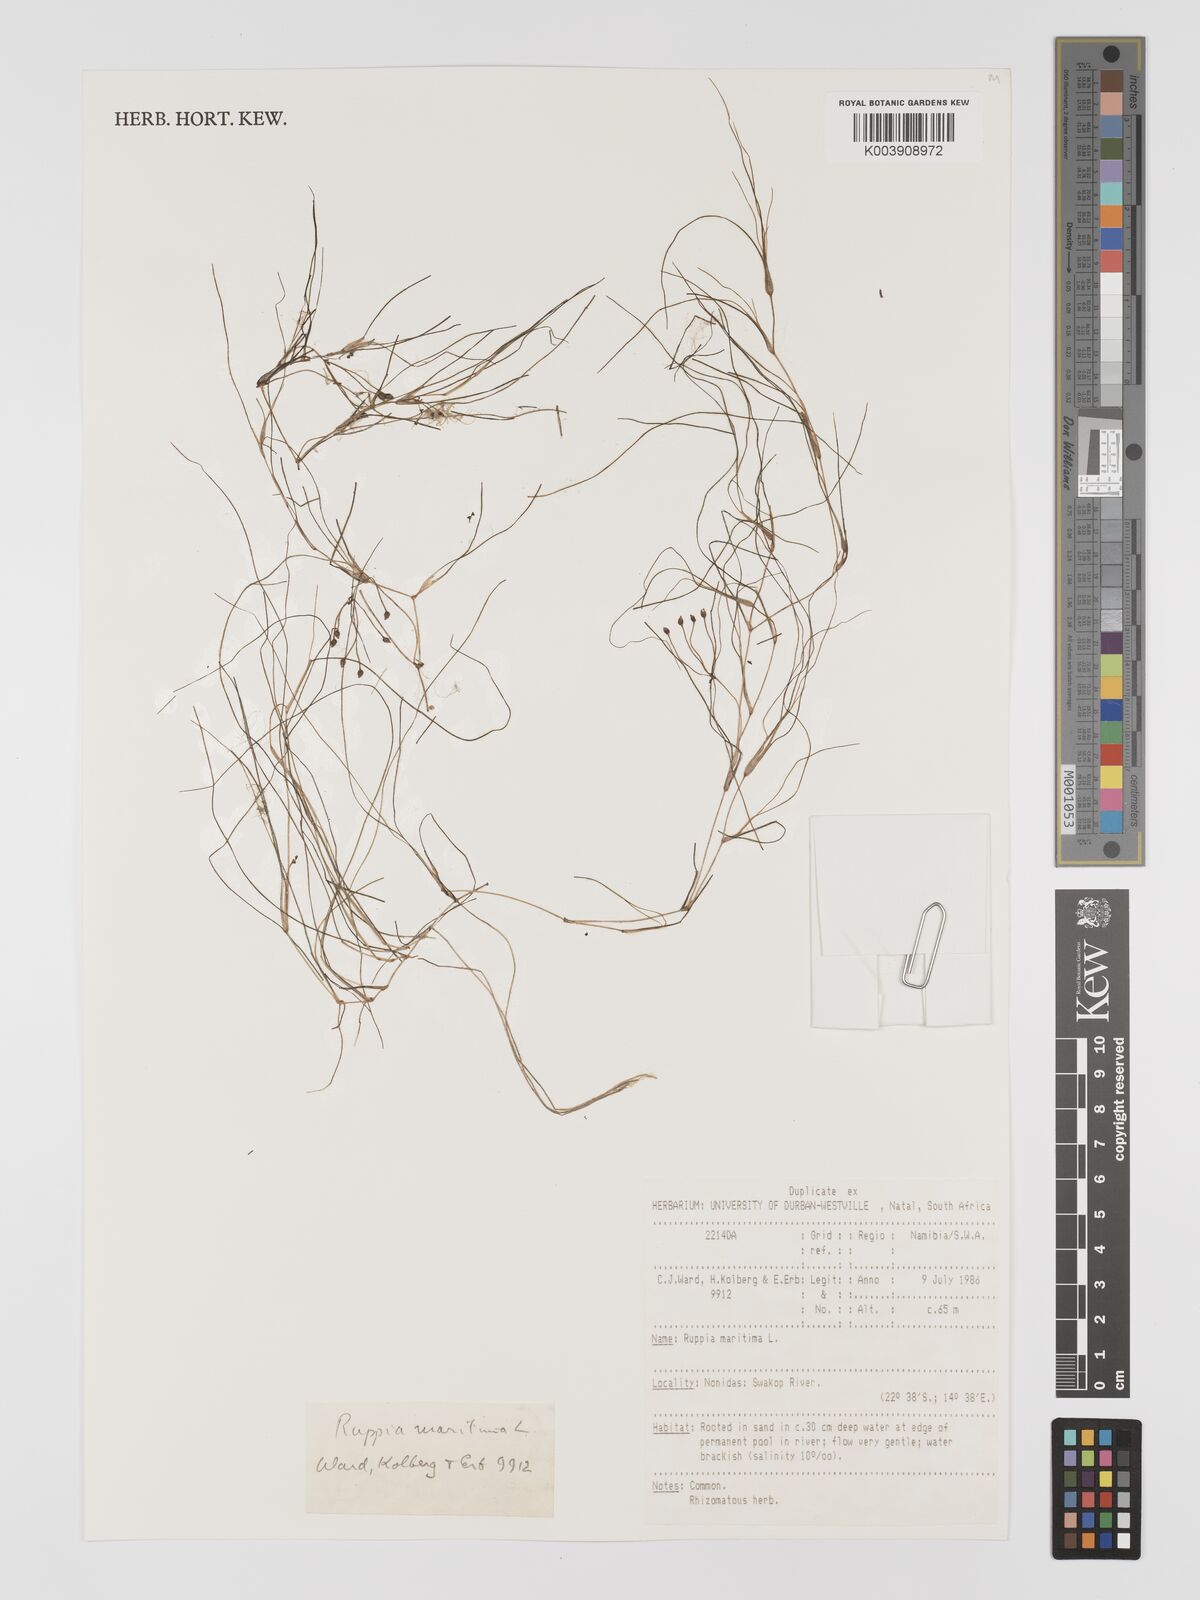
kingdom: Plantae
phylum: Tracheophyta
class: Liliopsida
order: Alismatales
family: Ruppiaceae
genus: Ruppia
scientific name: Ruppia maritima
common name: Beaked tasselweed
